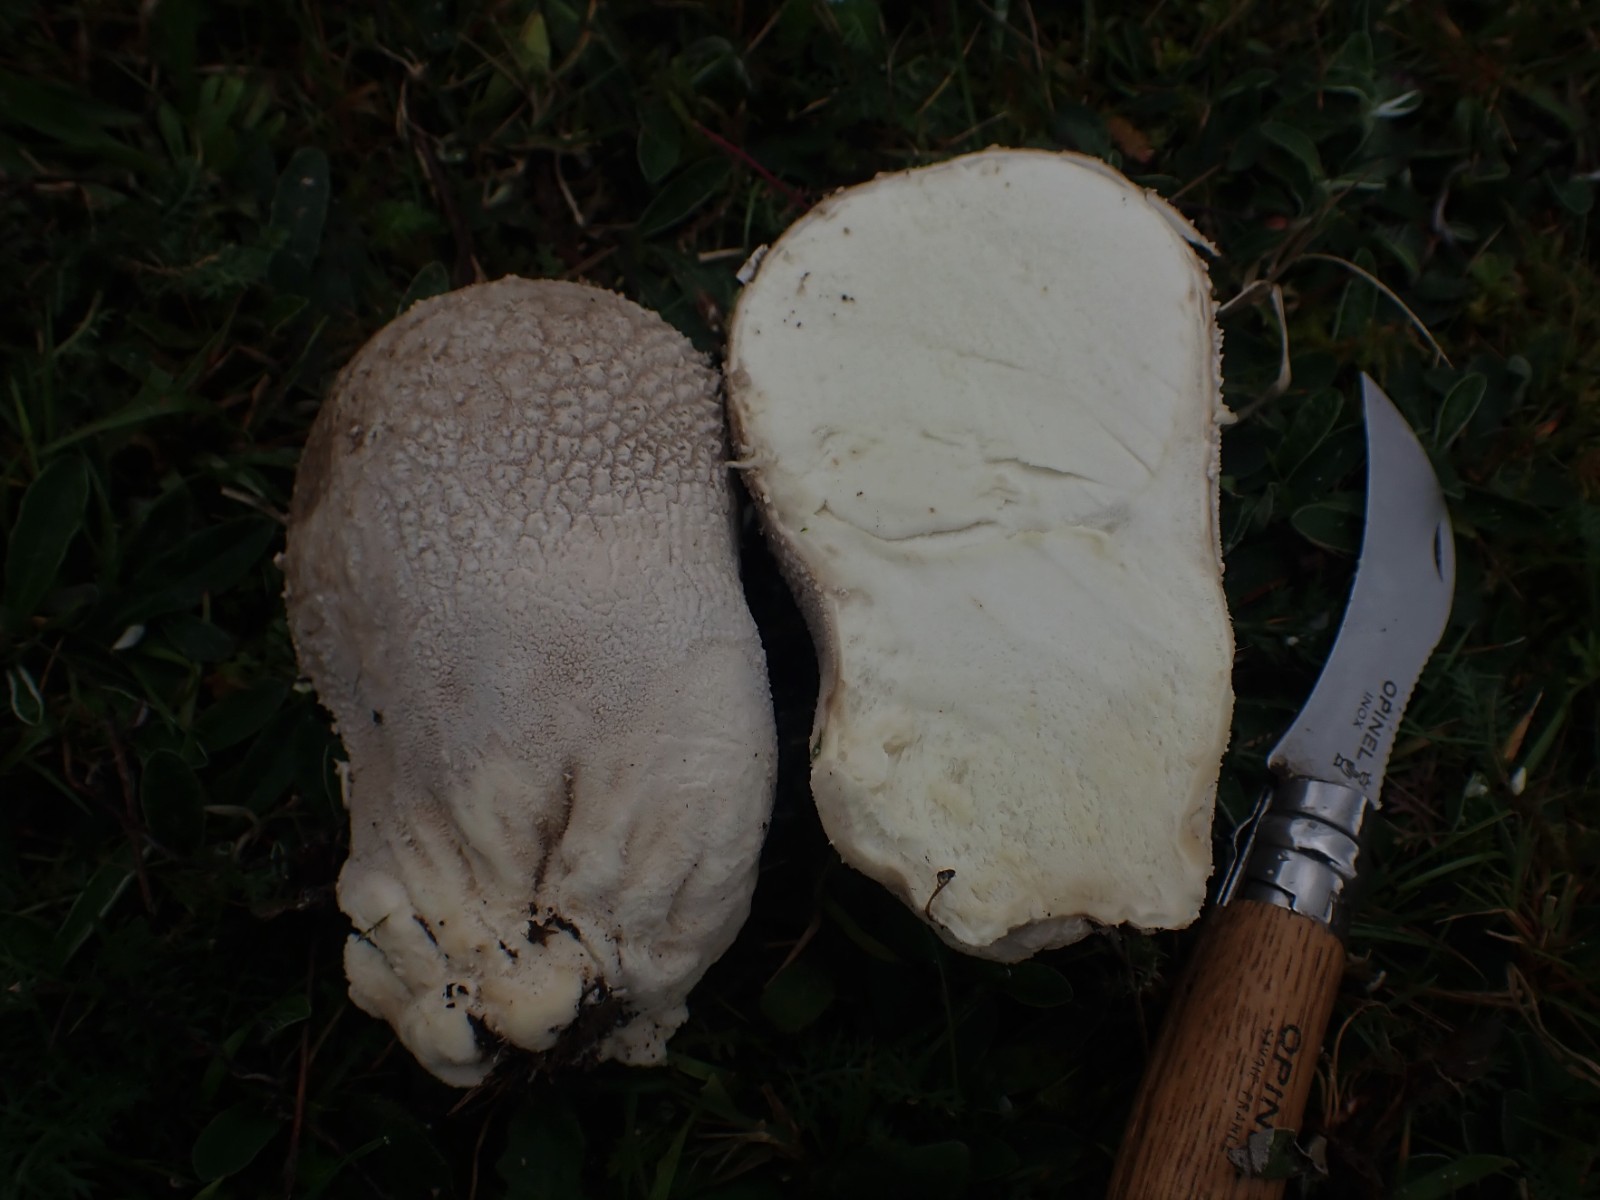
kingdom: Fungi
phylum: Basidiomycota
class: Agaricomycetes
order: Agaricales
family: Lycoperdaceae
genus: Bovistella
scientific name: Bovistella utriformis
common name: skællet støvbold
